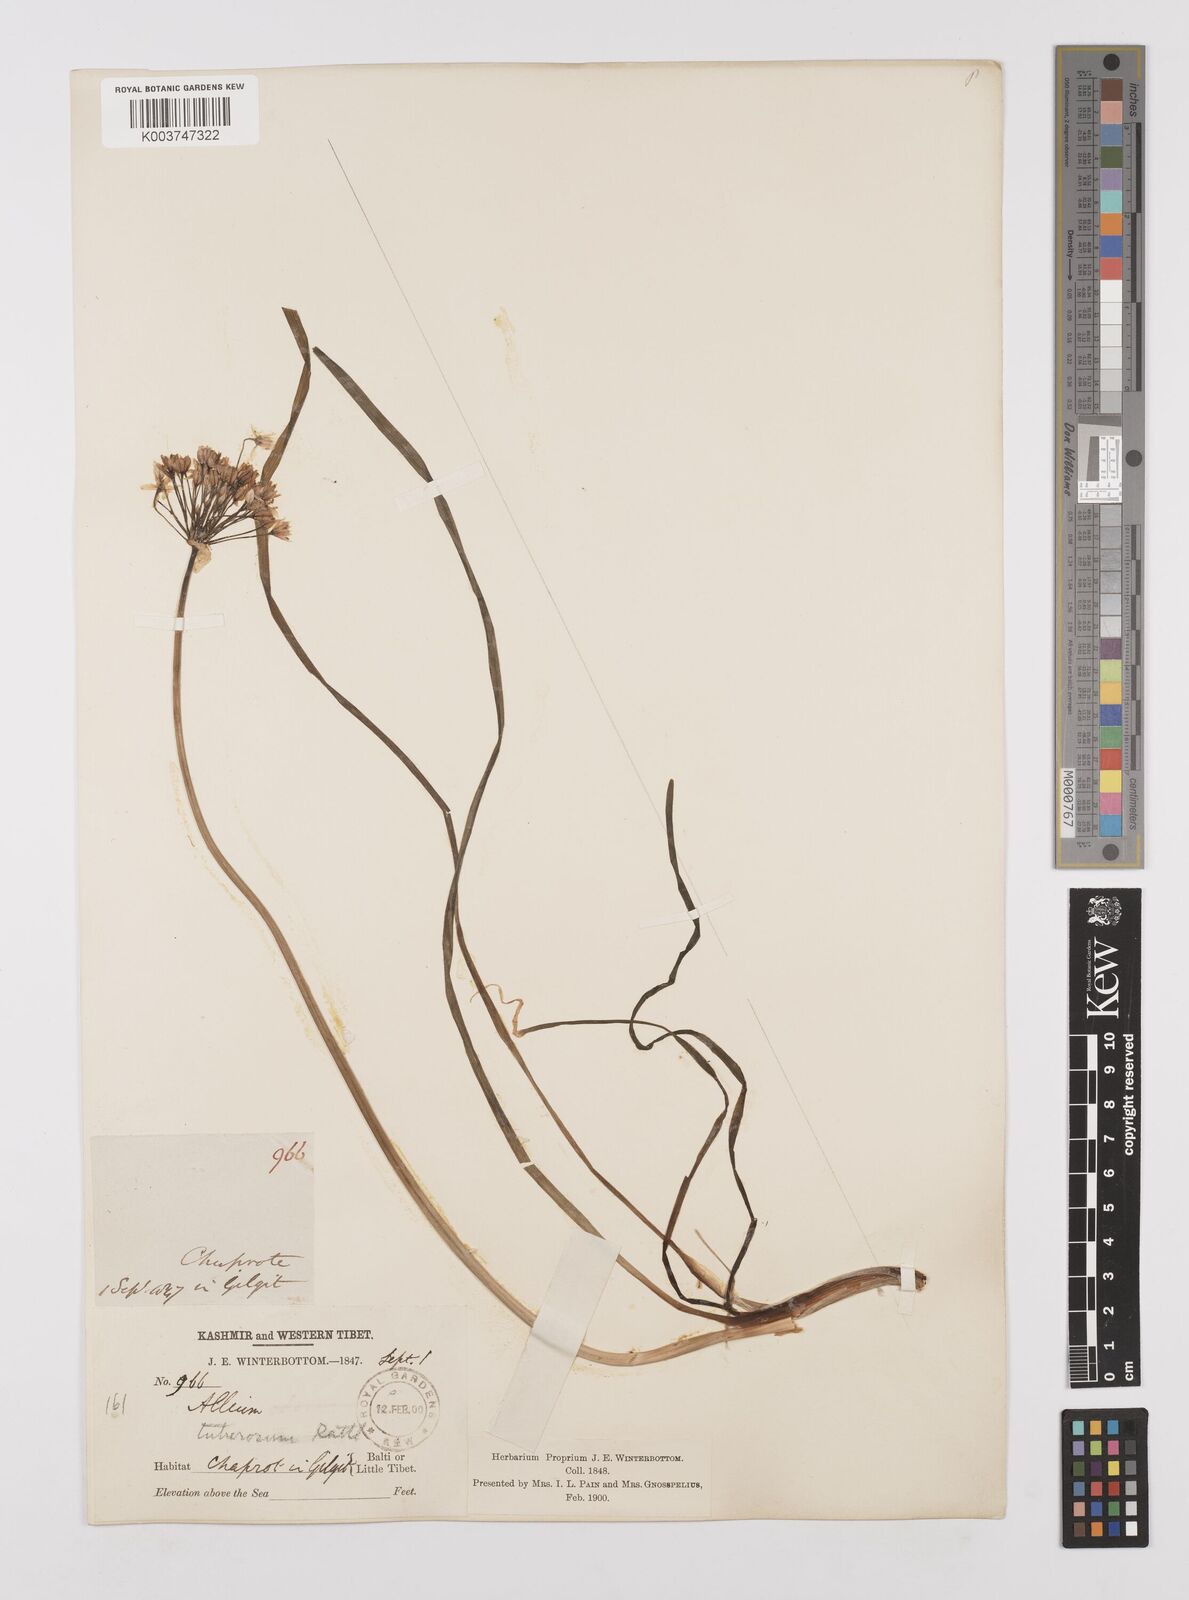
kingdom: Plantae
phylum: Tracheophyta
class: Liliopsida
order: Asparagales
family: Amaryllidaceae
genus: Allium
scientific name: Allium tuberosum
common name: Chinese chives
